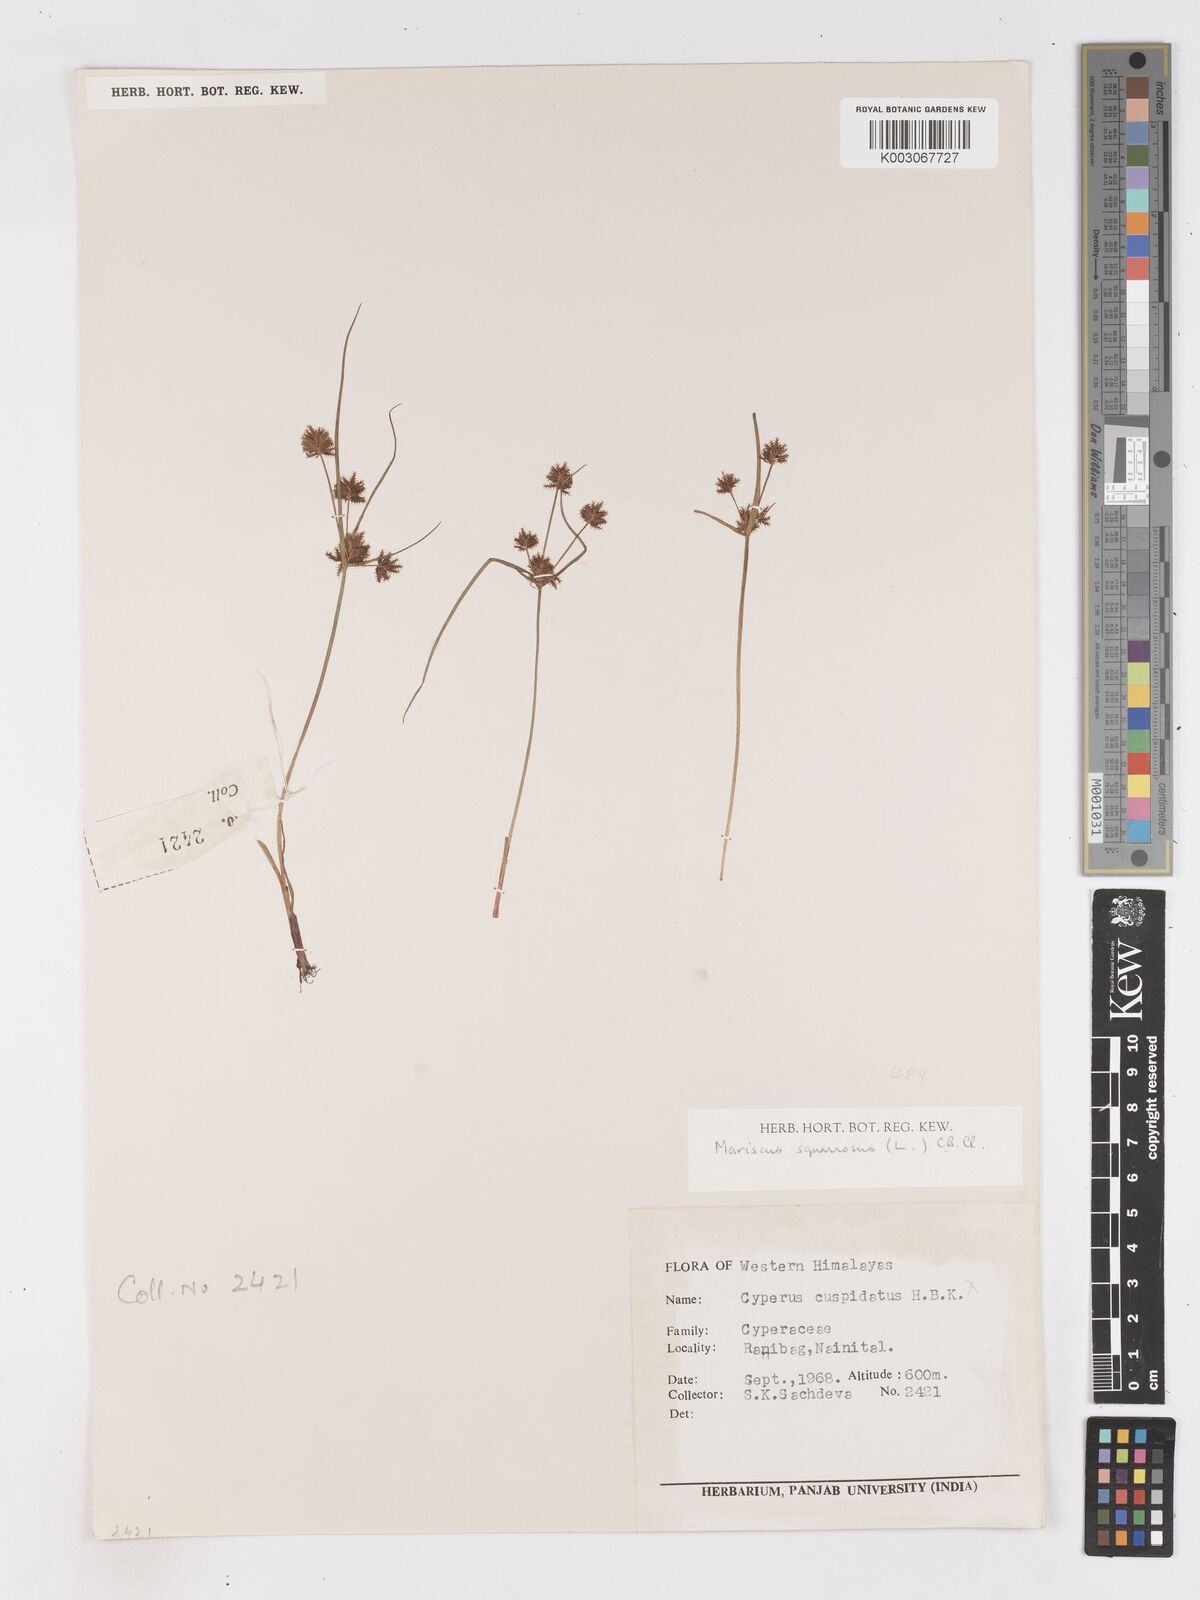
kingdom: Plantae
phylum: Tracheophyta
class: Liliopsida
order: Poales
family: Cyperaceae
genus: Cyperus
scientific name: Cyperus squarrosus
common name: Awned cyperus
